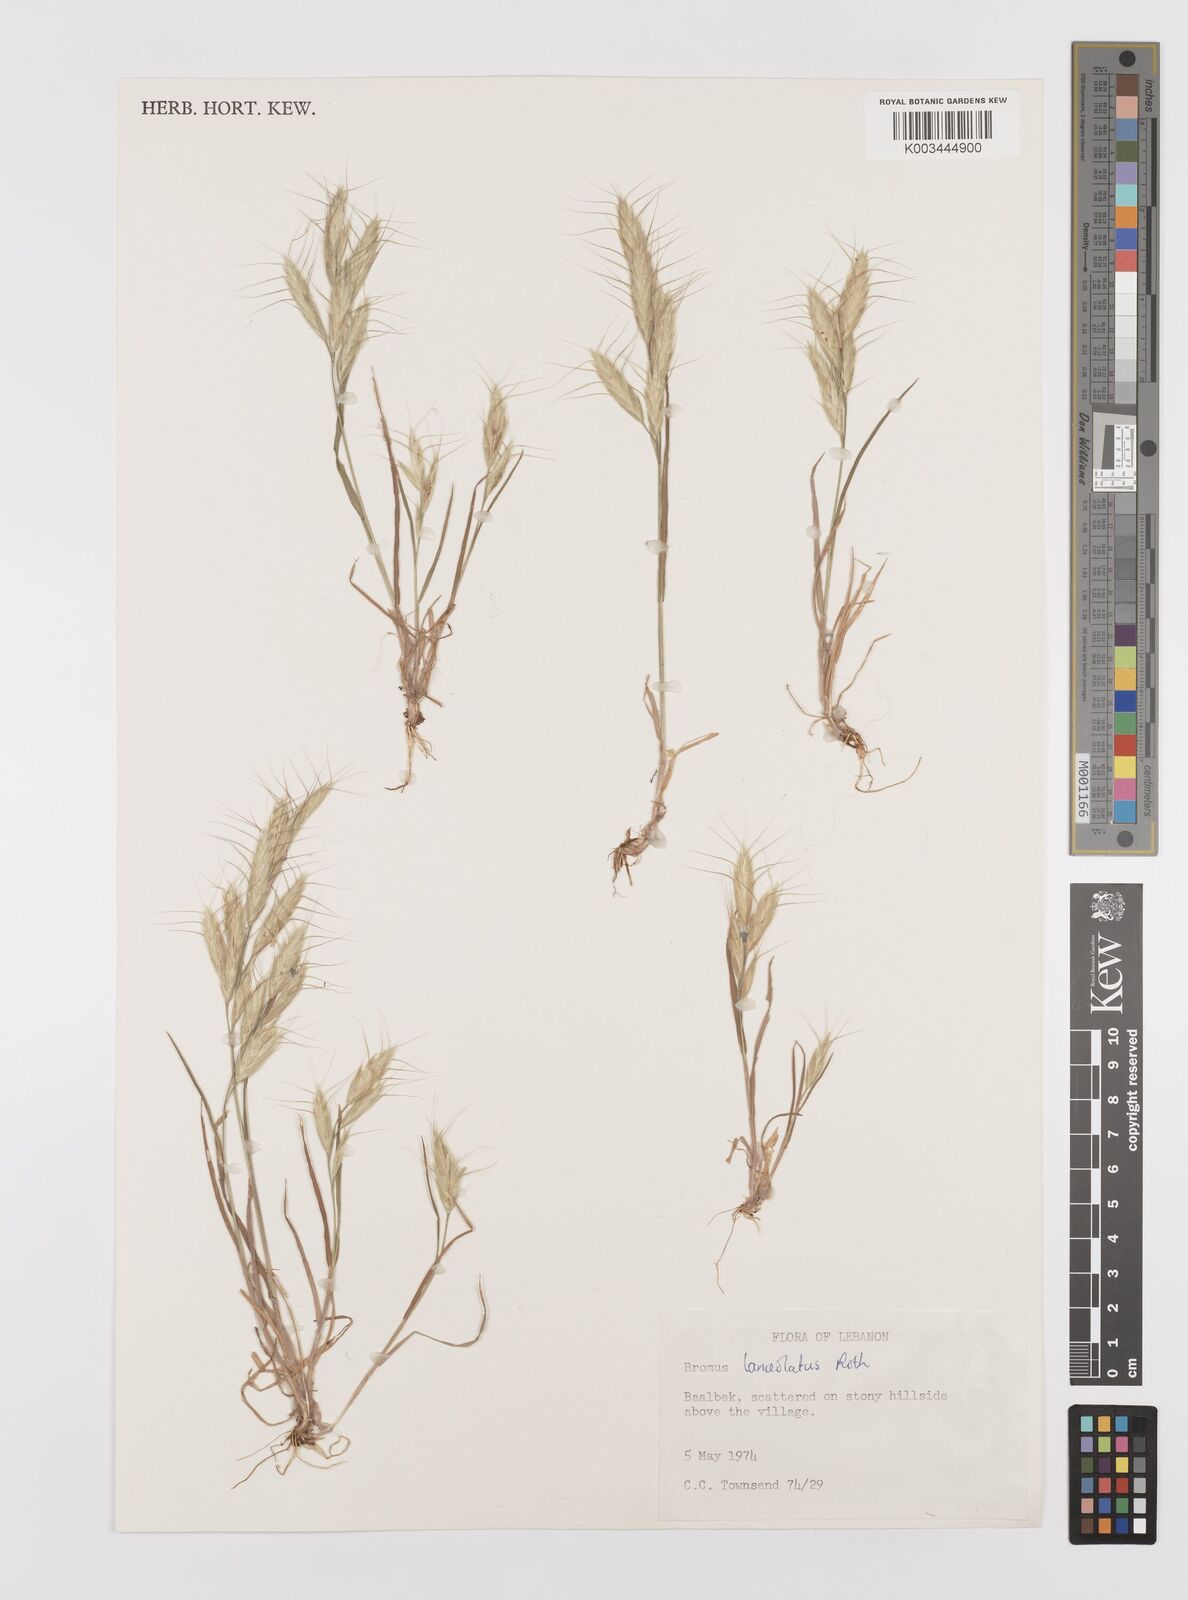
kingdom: Plantae
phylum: Tracheophyta
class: Liliopsida
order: Poales
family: Poaceae
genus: Bromus
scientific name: Bromus lanceolatus
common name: Mediterranean brome
